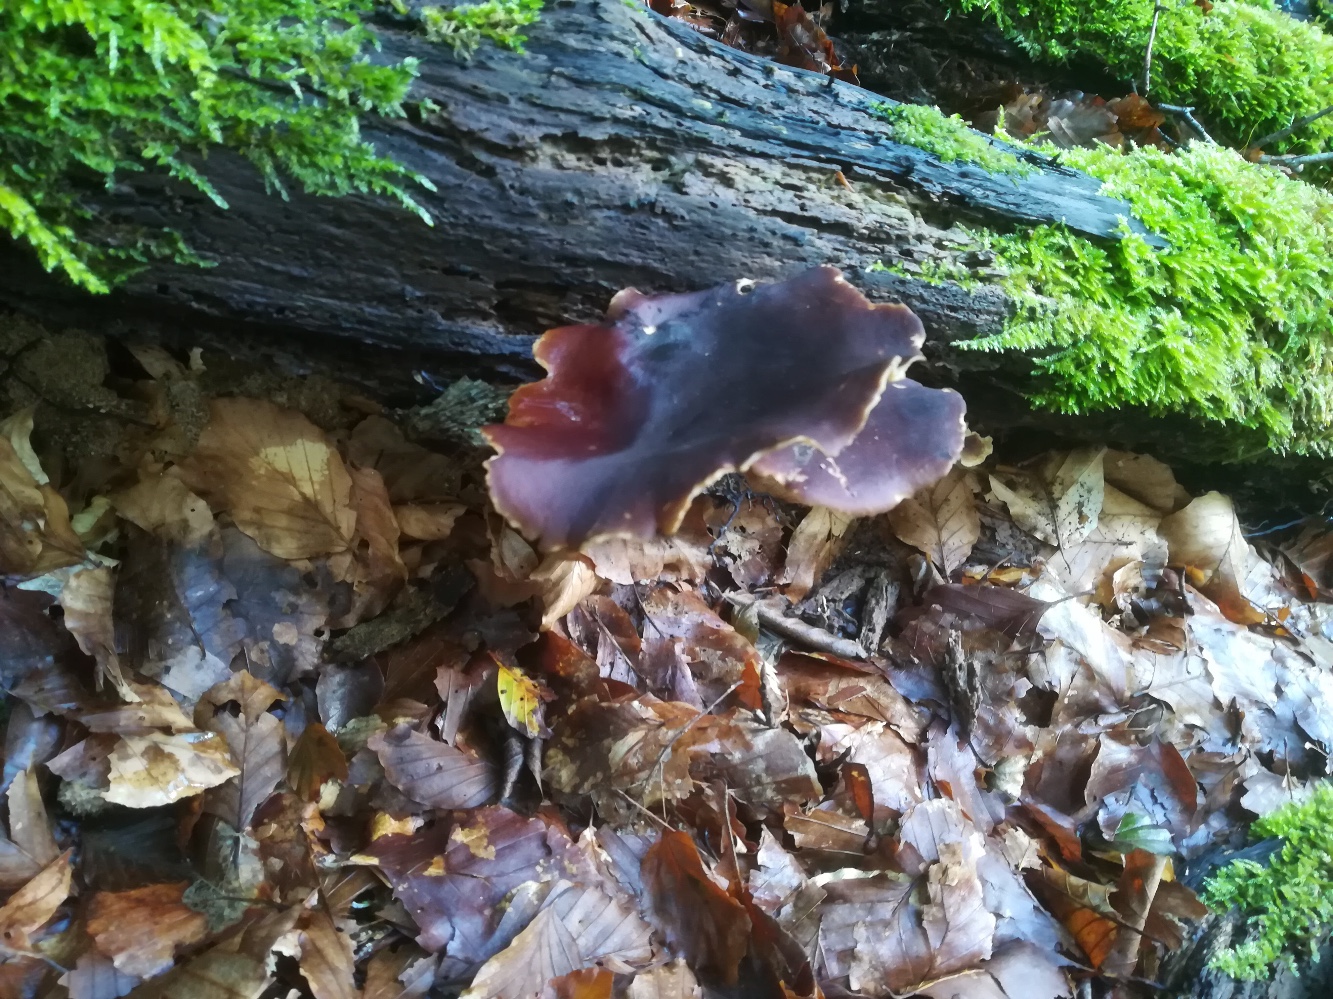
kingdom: Fungi
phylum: Basidiomycota
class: Agaricomycetes
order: Polyporales
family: Polyporaceae
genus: Picipes
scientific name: Picipes badius
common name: kastaniebrun stilkporesvamp
